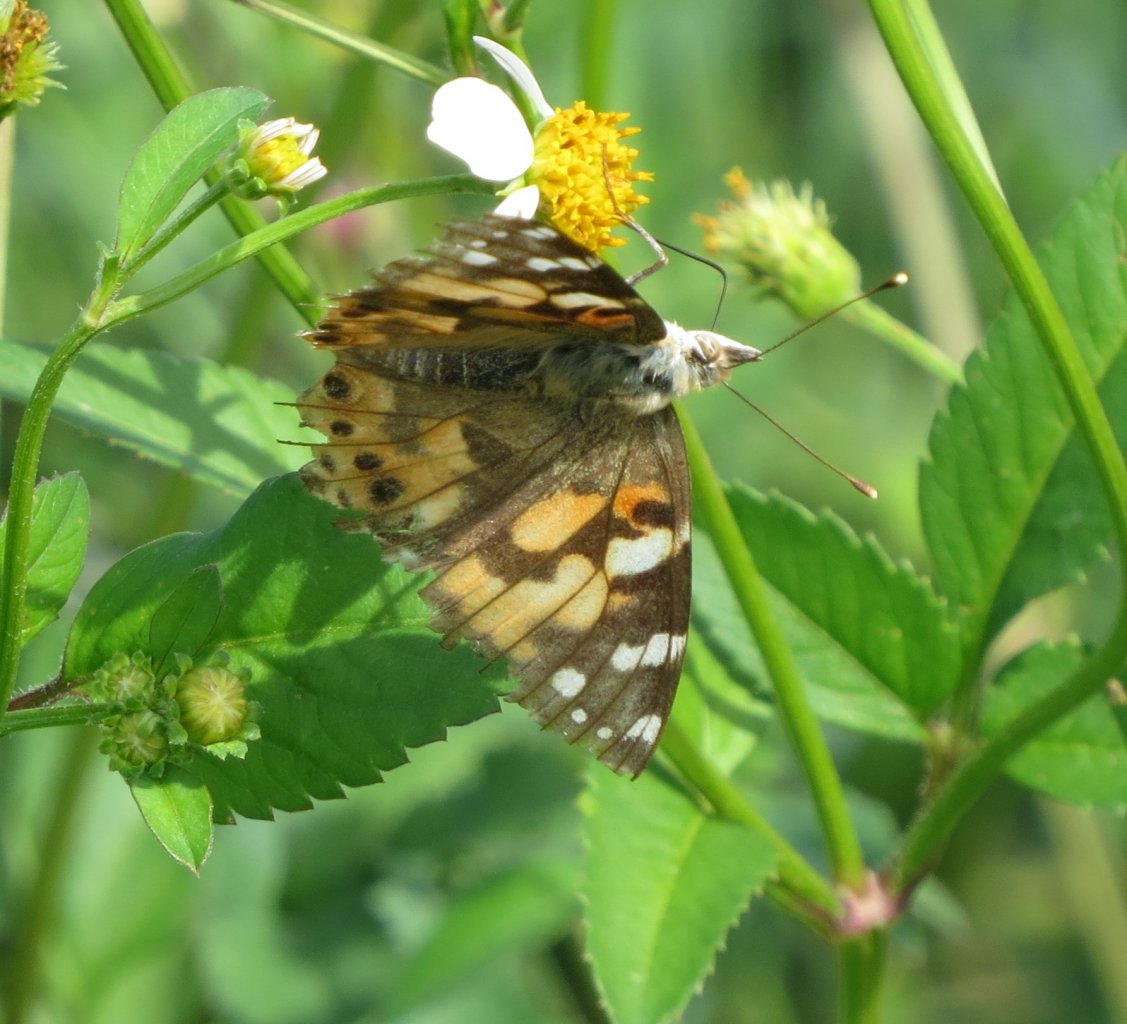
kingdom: Animalia
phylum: Arthropoda
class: Insecta
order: Lepidoptera
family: Nymphalidae
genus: Vanessa
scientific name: Vanessa cardui
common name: Painted Lady
